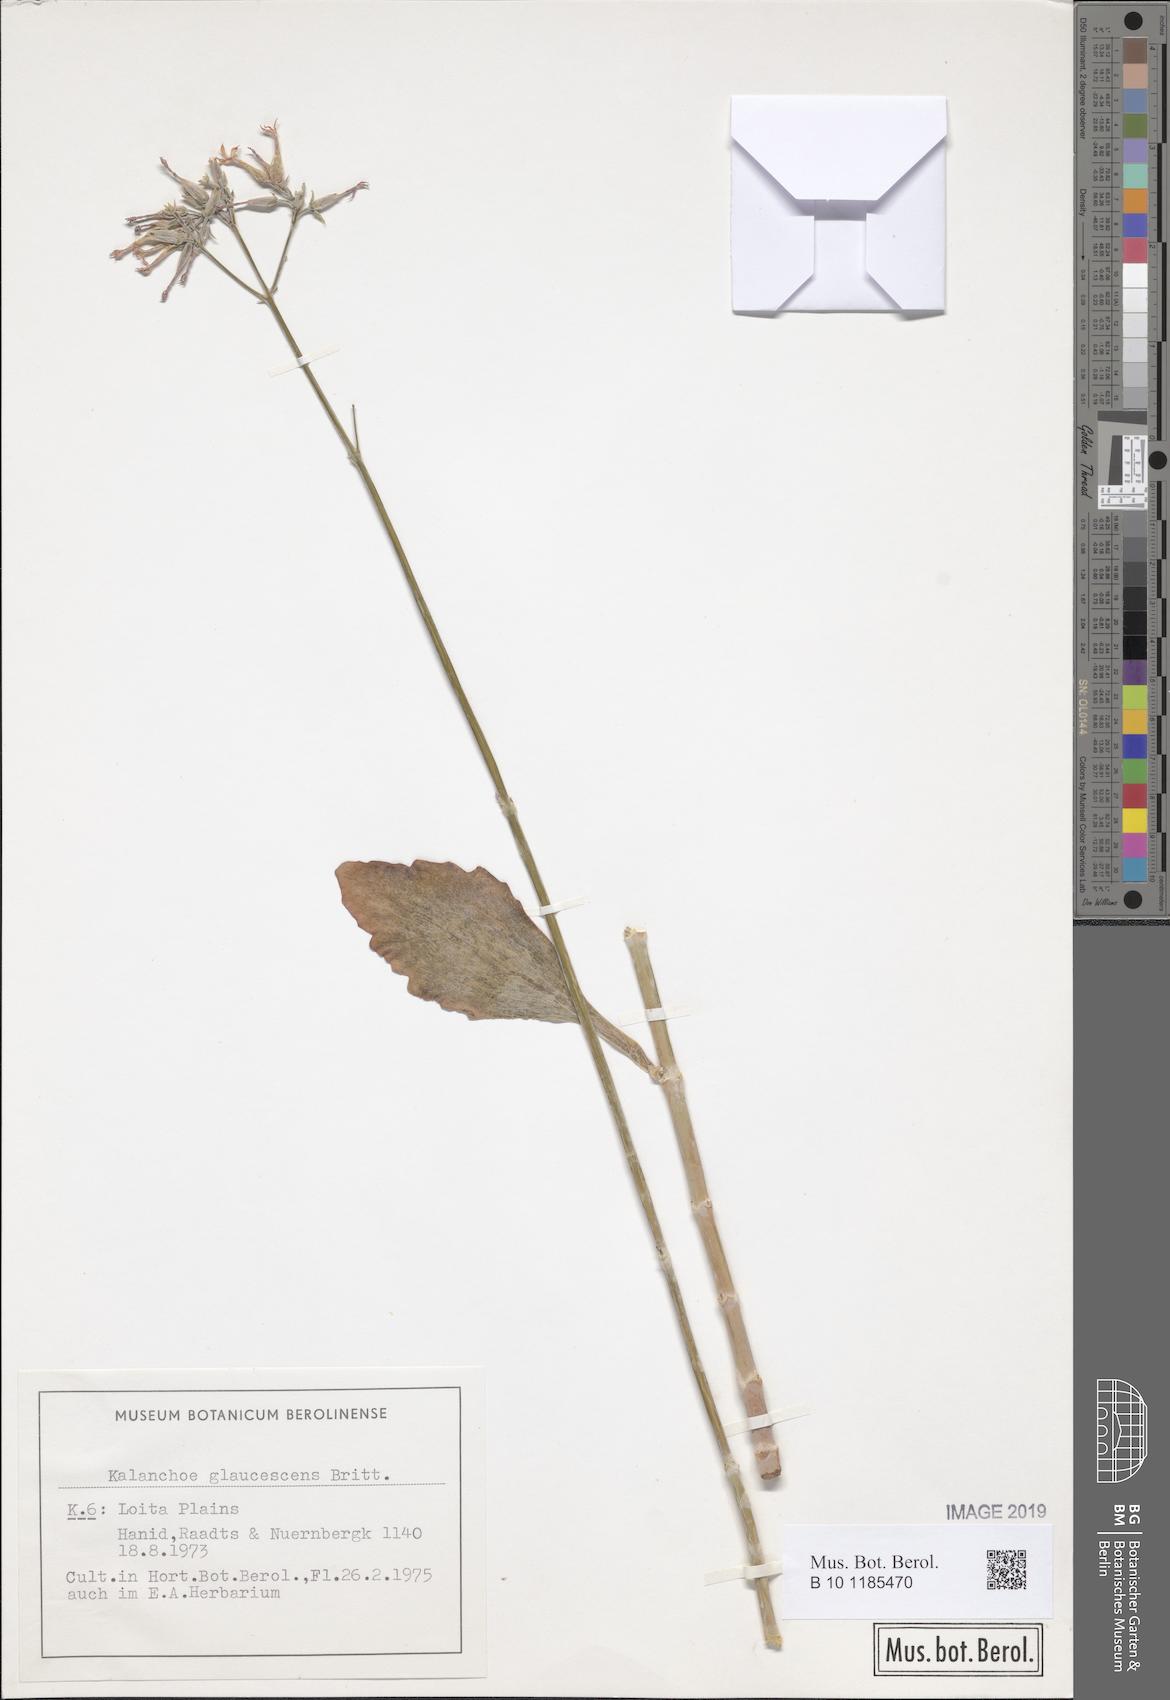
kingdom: Plantae
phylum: Tracheophyta
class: Magnoliopsida
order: Saxifragales
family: Crassulaceae
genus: Kalanchoe
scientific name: Kalanchoe glaucescens
